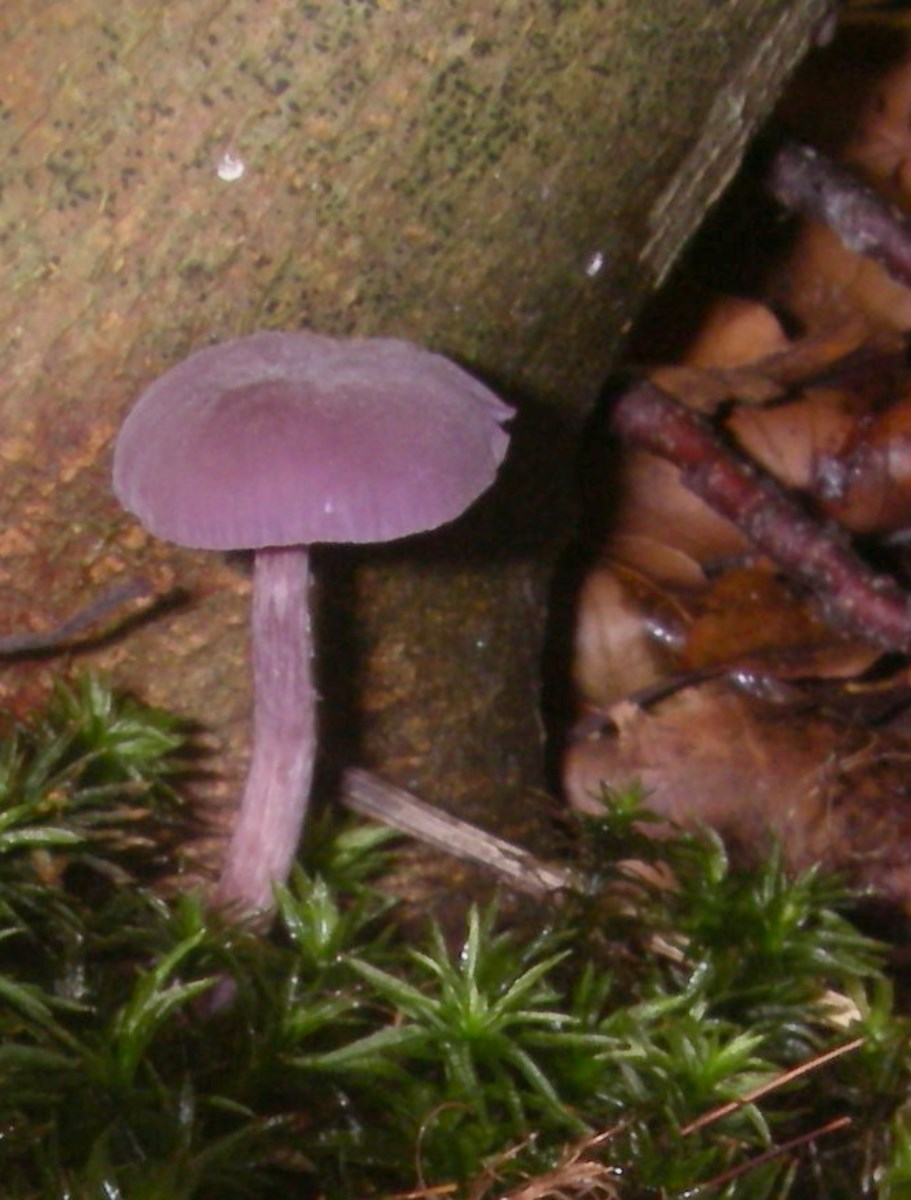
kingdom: Fungi
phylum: Basidiomycota
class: Agaricomycetes
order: Agaricales
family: Hydnangiaceae
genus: Laccaria
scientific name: Laccaria amethystina
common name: violet ametysthat
